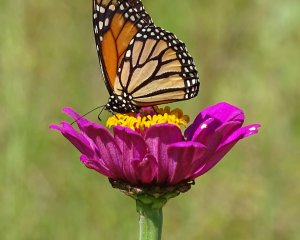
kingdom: Animalia
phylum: Arthropoda
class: Insecta
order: Lepidoptera
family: Nymphalidae
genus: Danaus
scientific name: Danaus plexippus
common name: Monarch
